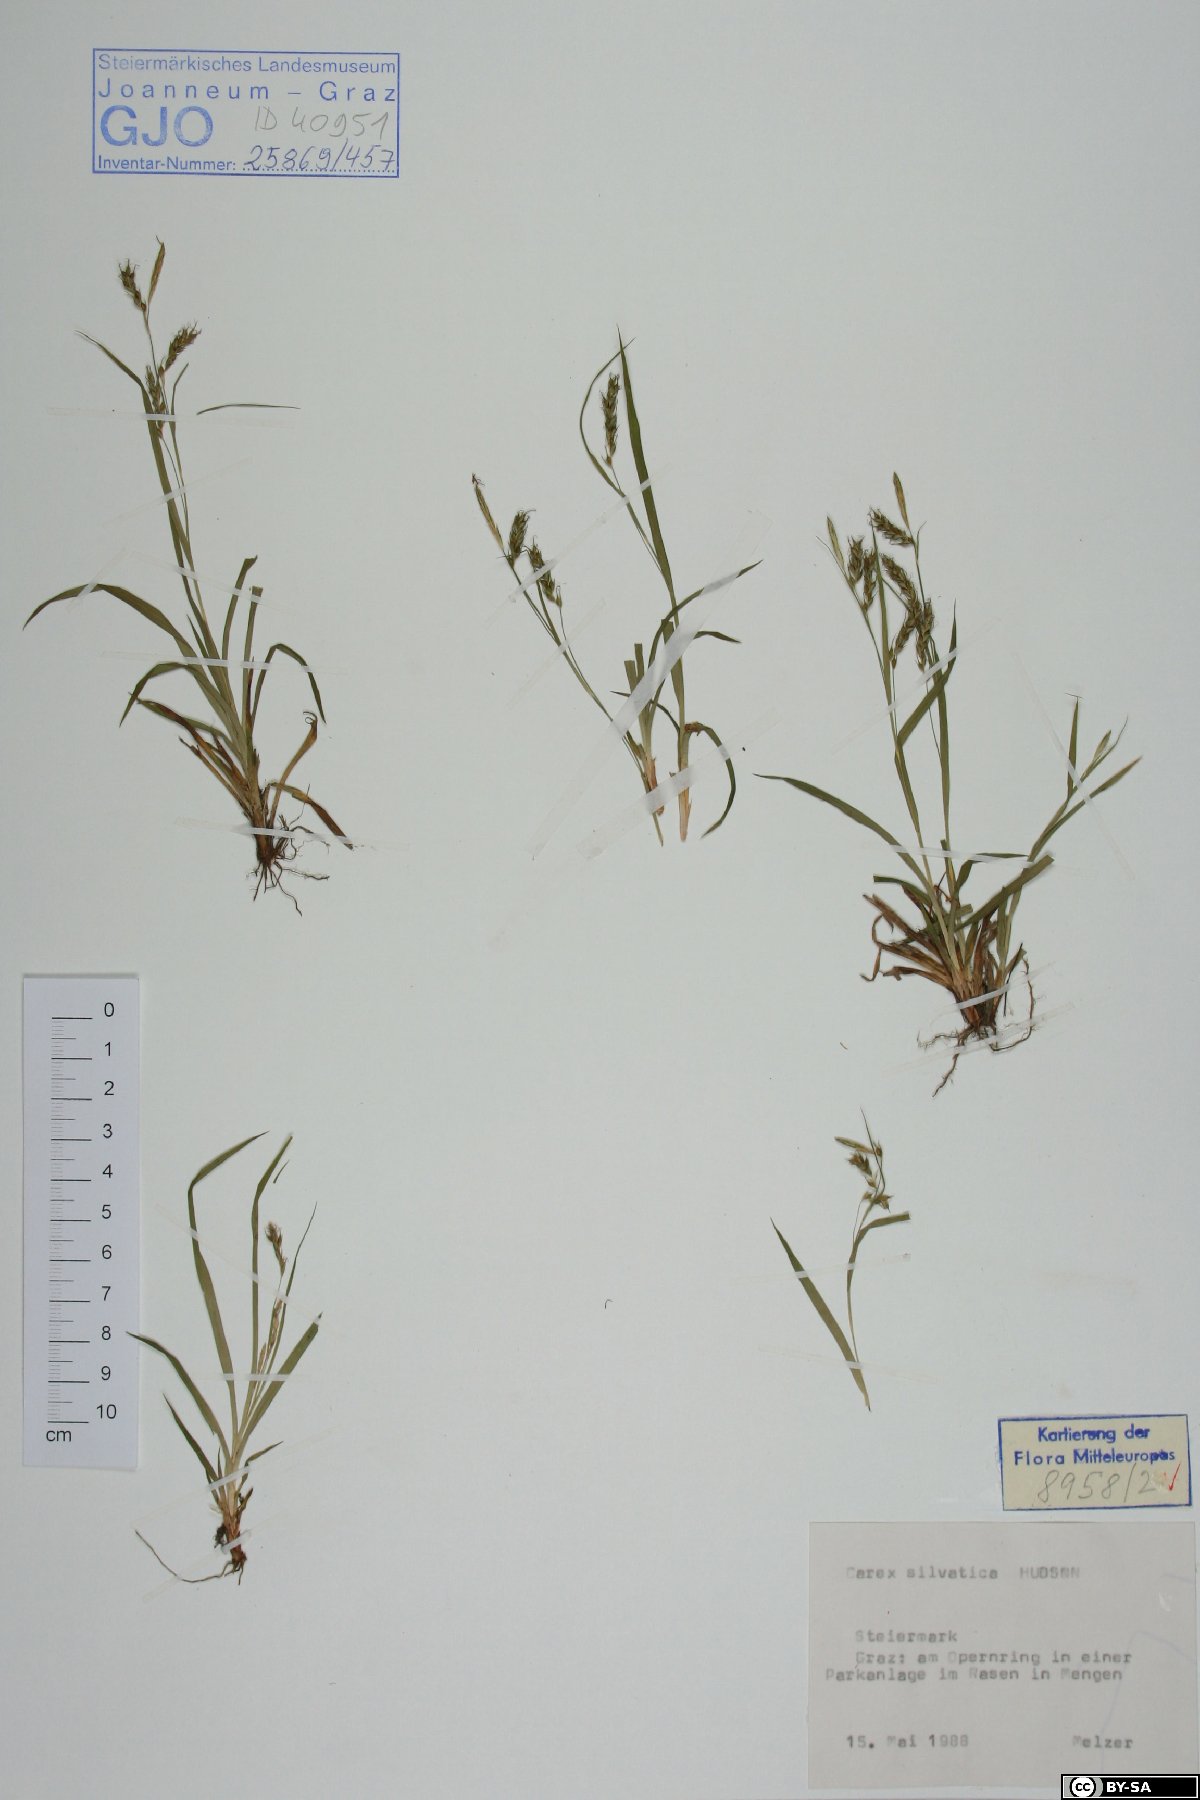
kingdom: Plantae
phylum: Tracheophyta
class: Liliopsida
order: Poales
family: Cyperaceae
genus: Carex
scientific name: Carex sylvatica
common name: Wood-sedge
